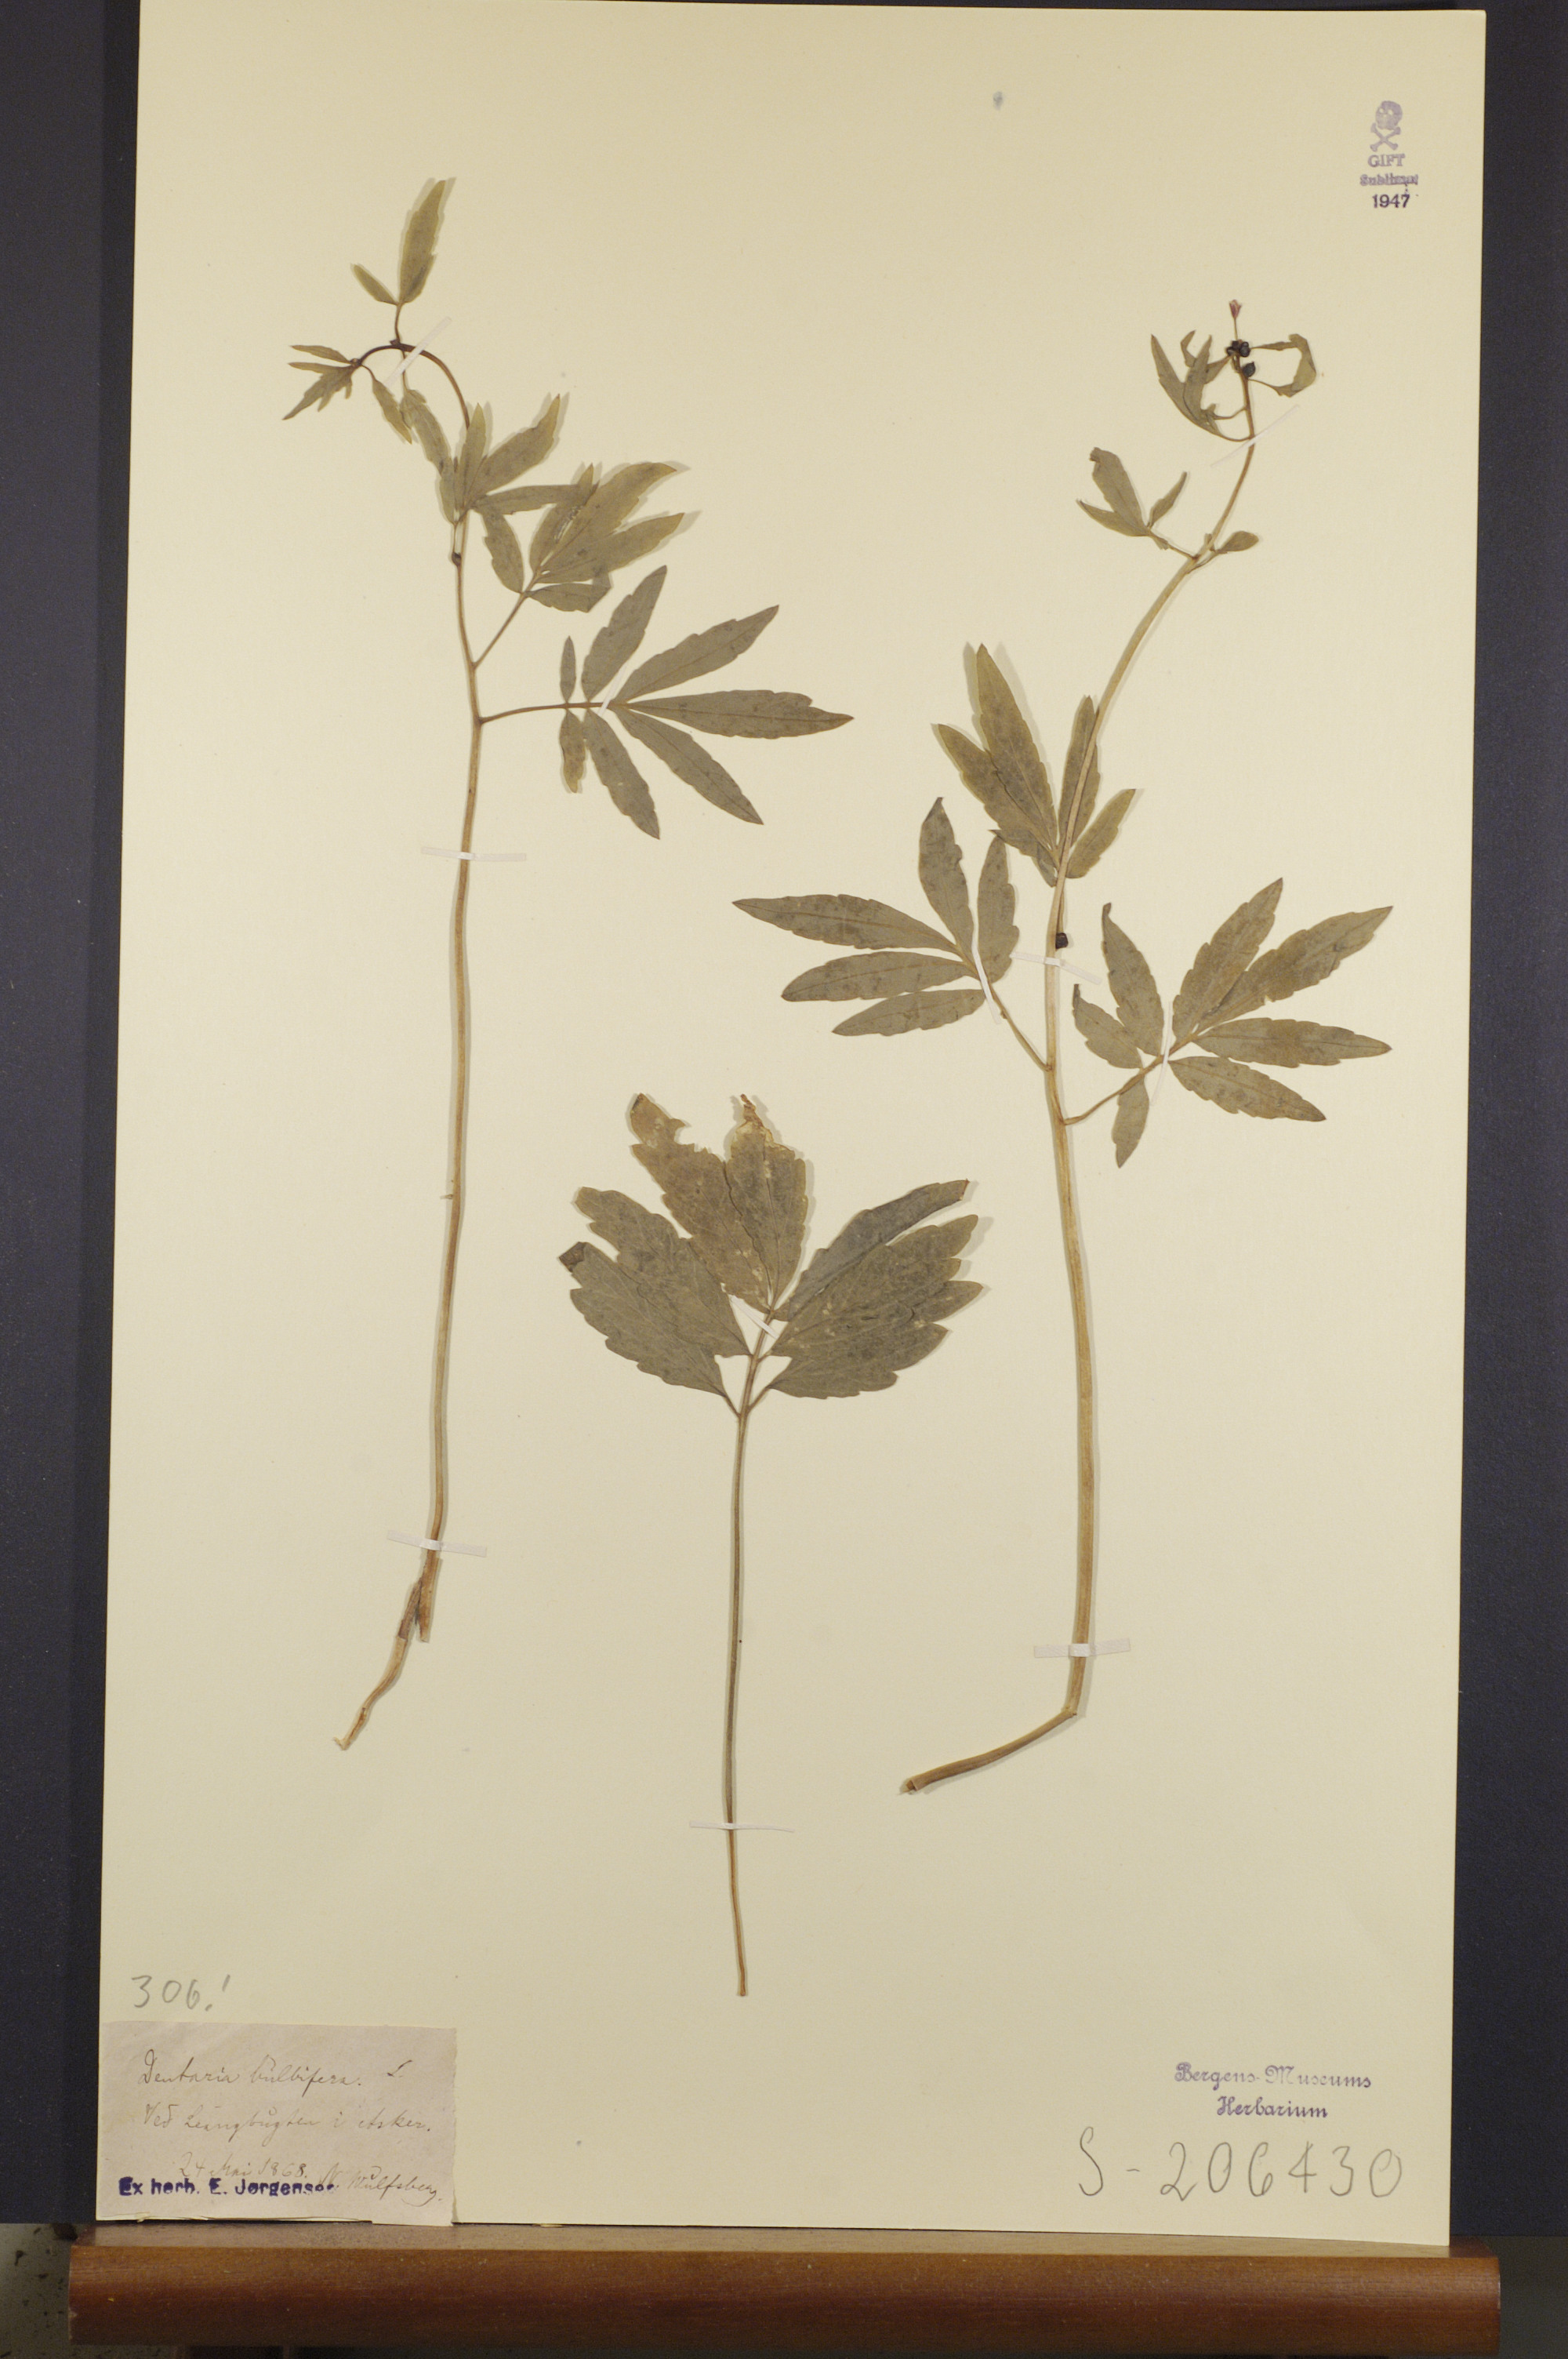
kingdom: Plantae
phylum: Tracheophyta
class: Magnoliopsida
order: Brassicales
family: Brassicaceae
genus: Cardamine
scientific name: Cardamine bulbifera
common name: Coralroot bittercress
